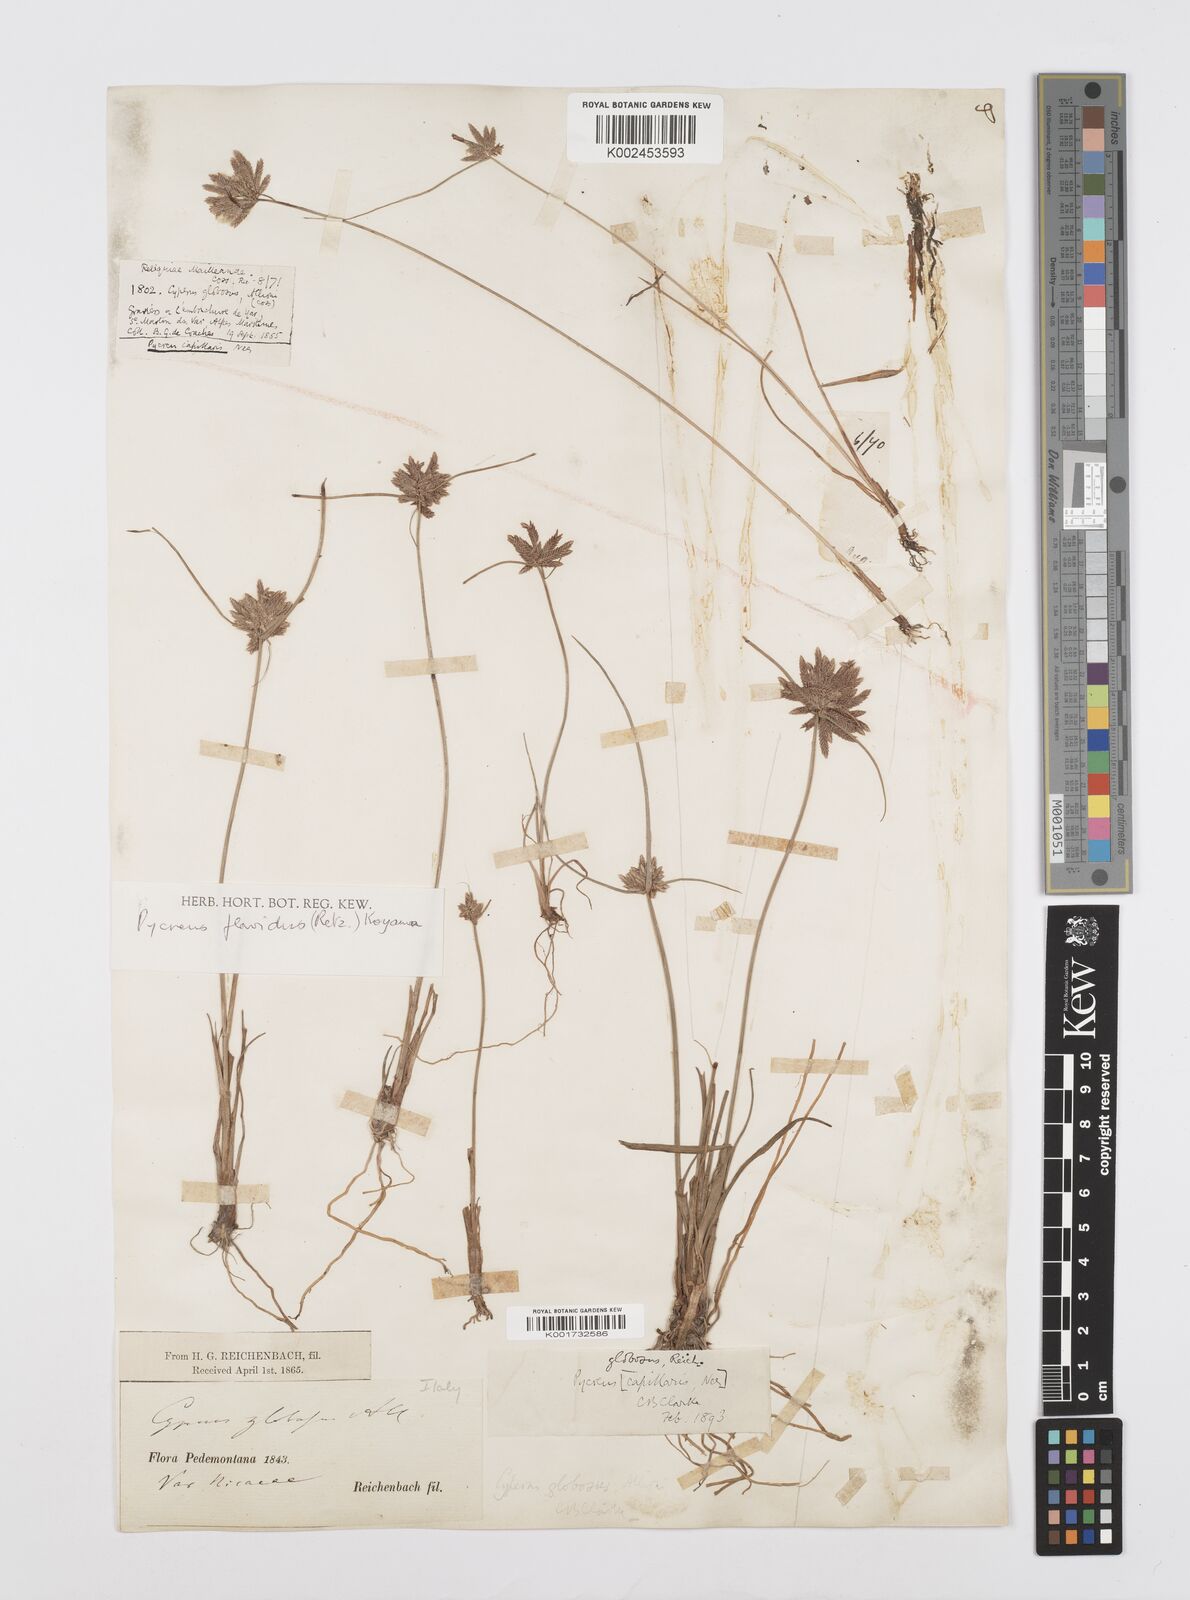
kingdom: Plantae
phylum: Tracheophyta
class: Liliopsida
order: Poales
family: Cyperaceae
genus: Cyperus
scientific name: Cyperus flavidus
